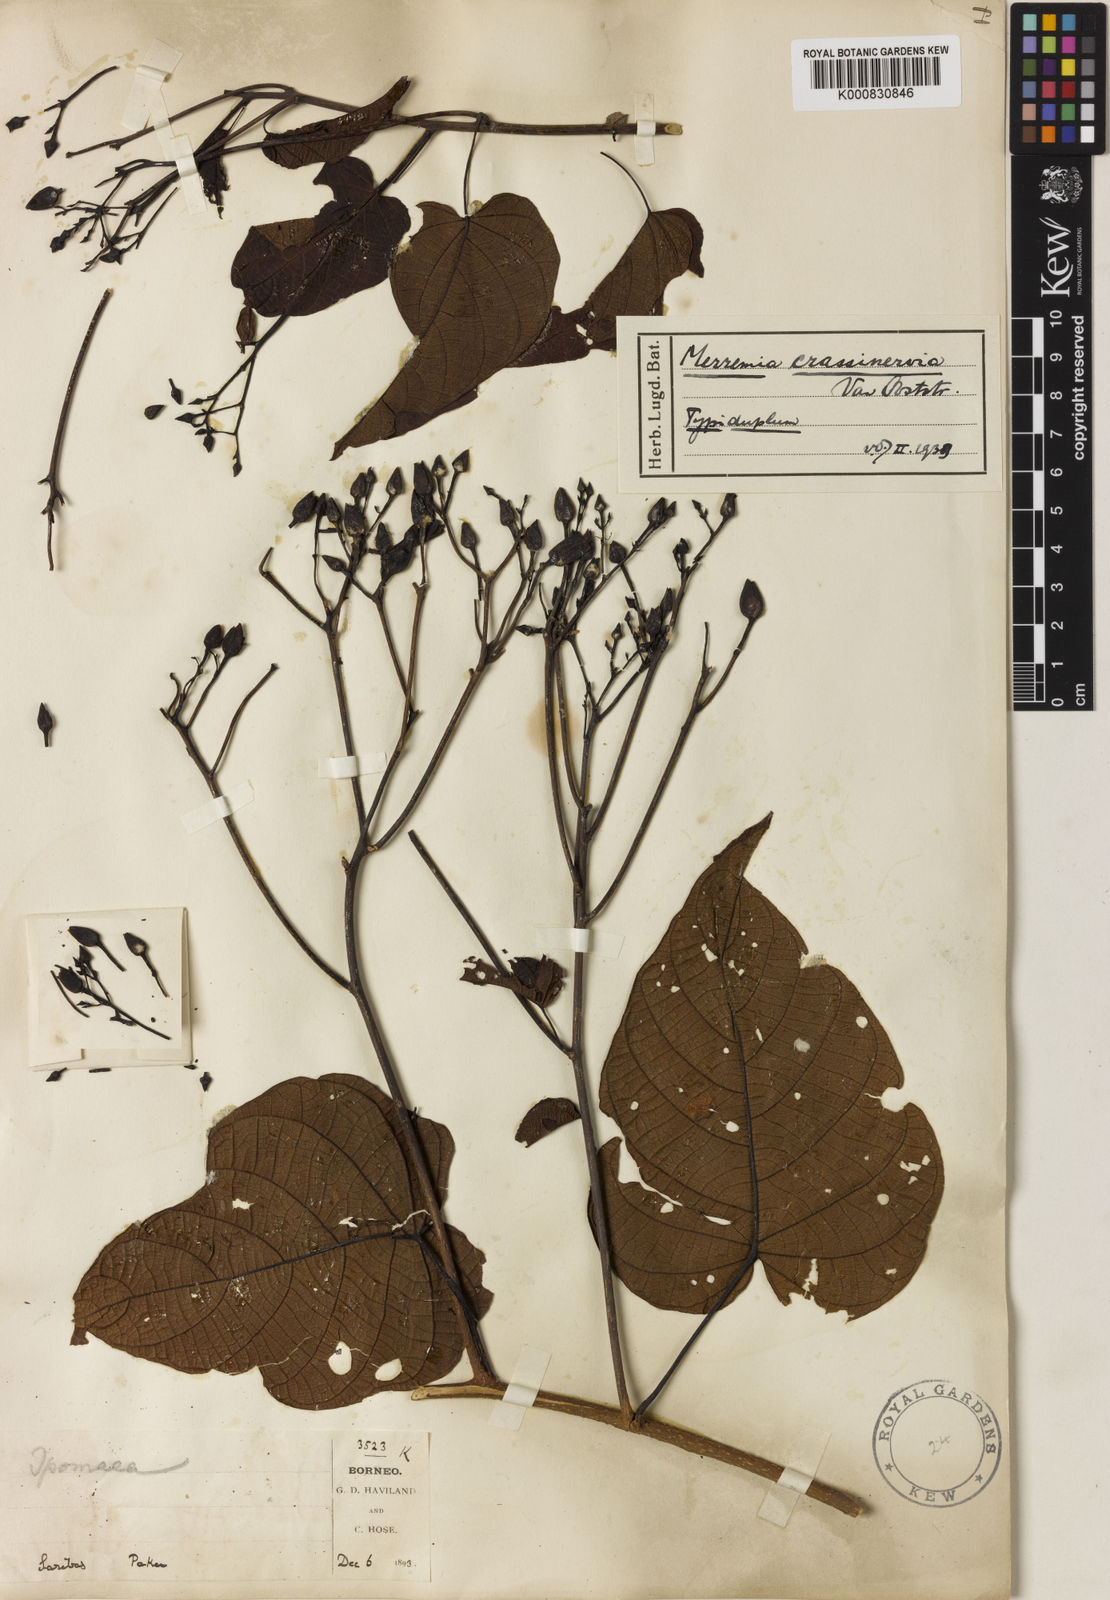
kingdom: Plantae
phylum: Tracheophyta
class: Magnoliopsida
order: Solanales
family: Convolvulaceae
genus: Merremia
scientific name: Merremia crassinervia
